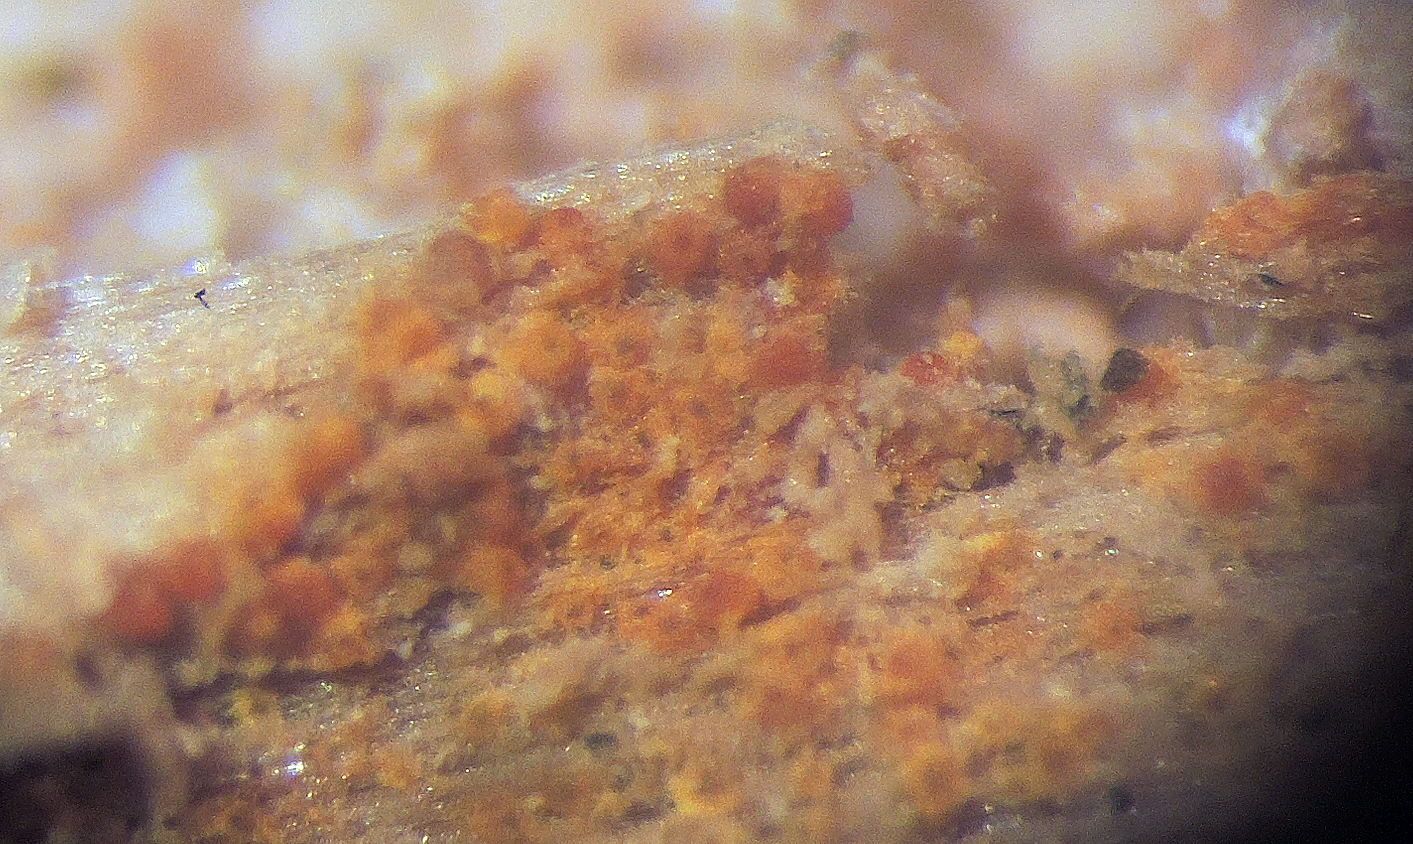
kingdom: Fungi
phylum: Ascomycota
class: Sordariomycetes
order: Hypocreales
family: Nectriaceae
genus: Chrysonectria
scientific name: Chrysonectria finisterrensis
